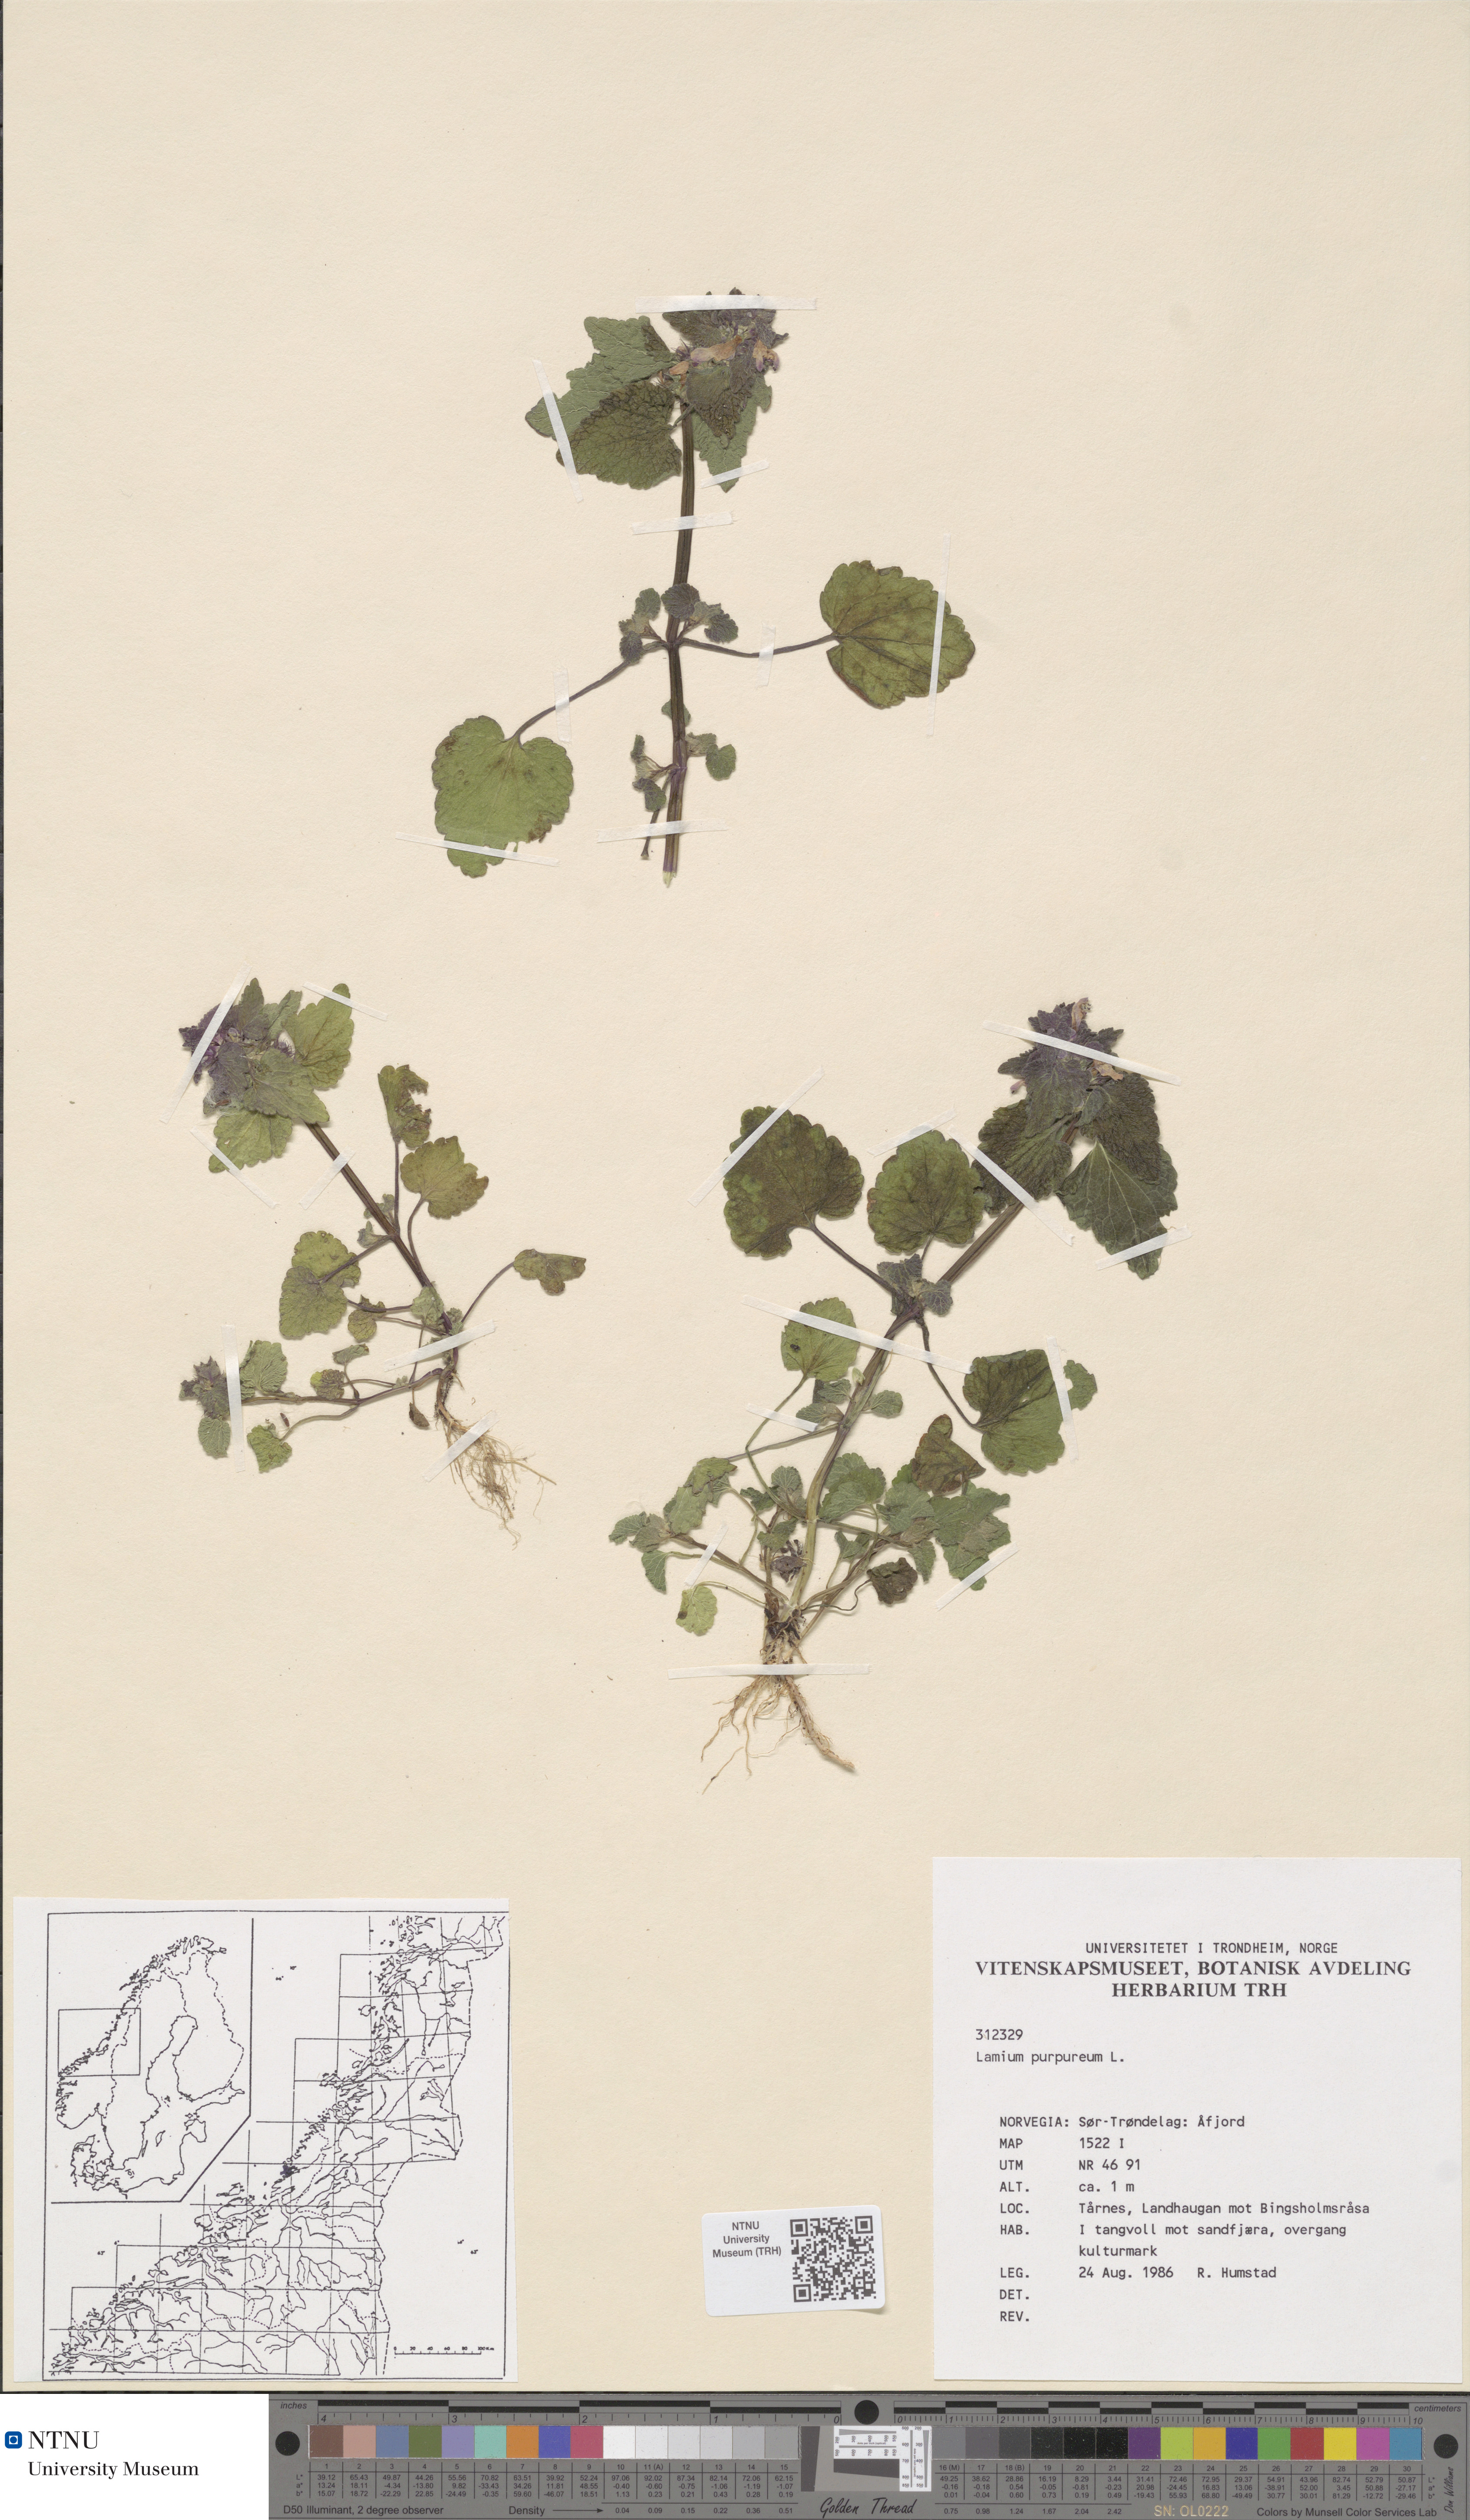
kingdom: Plantae
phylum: Tracheophyta
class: Magnoliopsida
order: Lamiales
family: Lamiaceae
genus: Lamium
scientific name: Lamium purpureum
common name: Red dead-nettle
